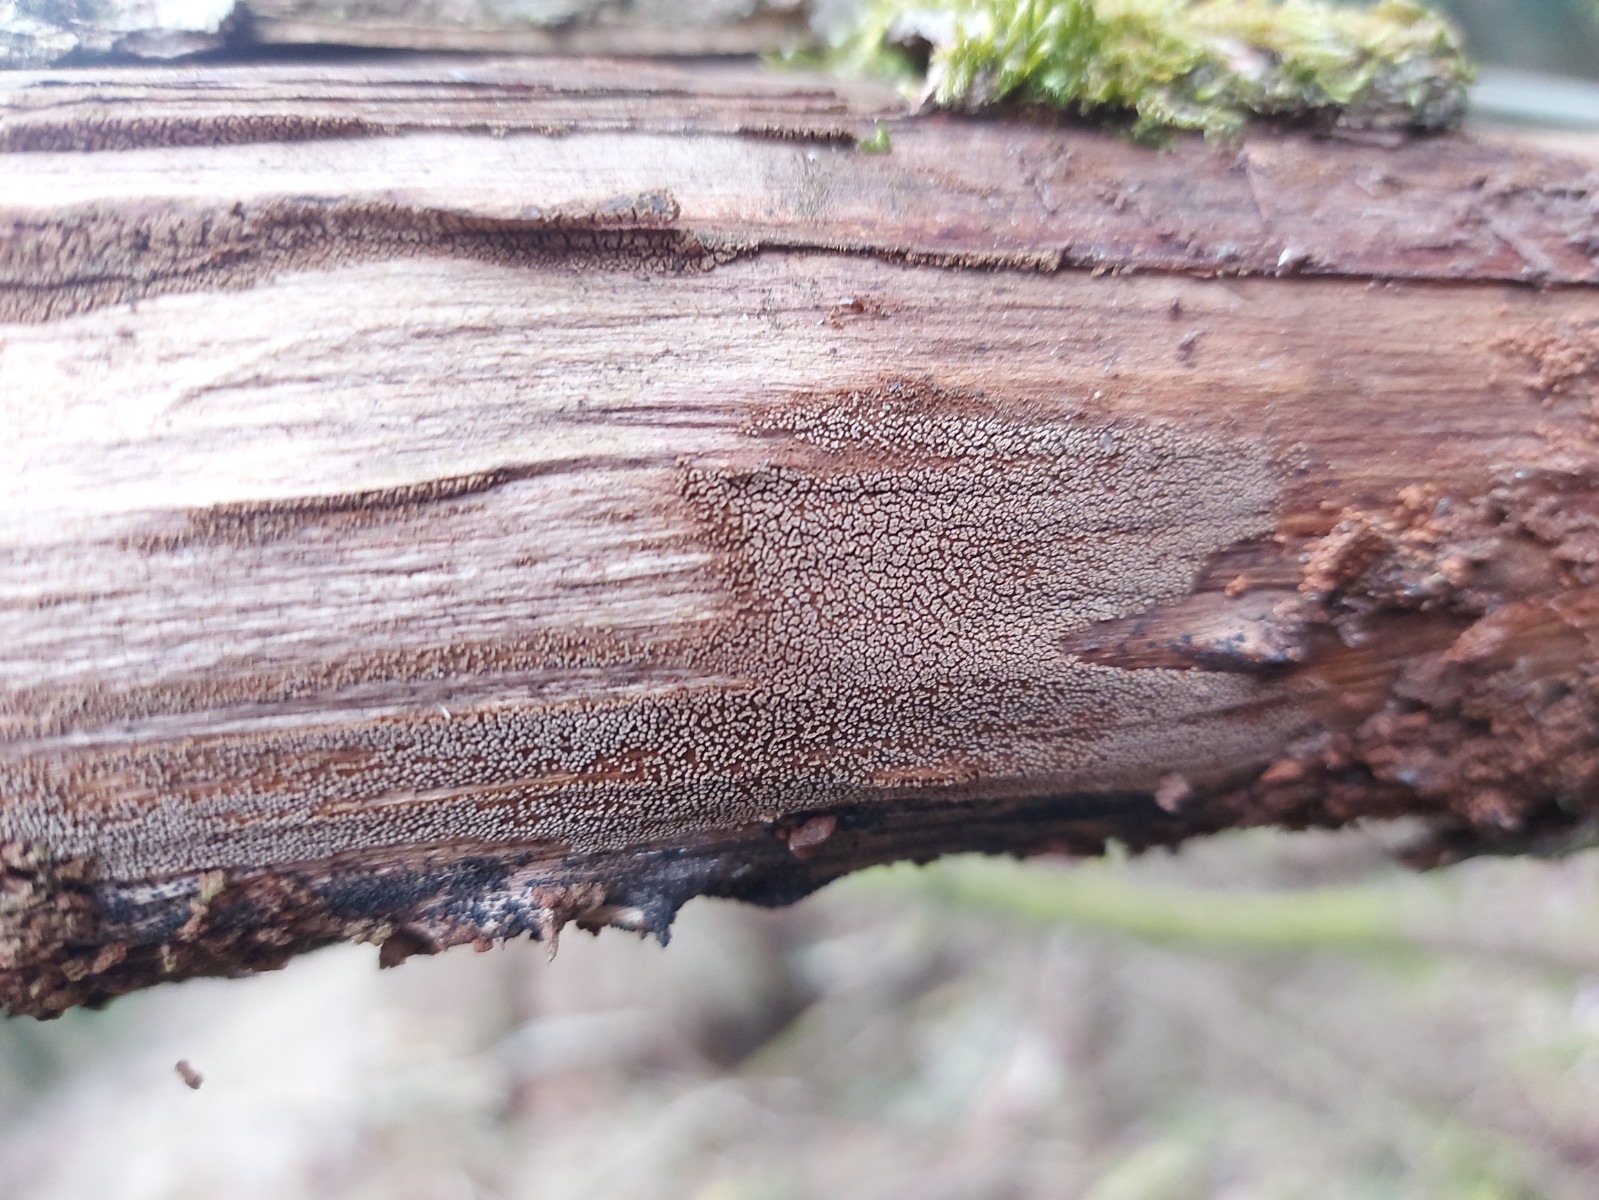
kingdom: Fungi
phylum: Basidiomycota
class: Agaricomycetes
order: Agaricales
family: Niaceae
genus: Merismodes
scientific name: Merismodes anomala
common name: almindelig læderskål
